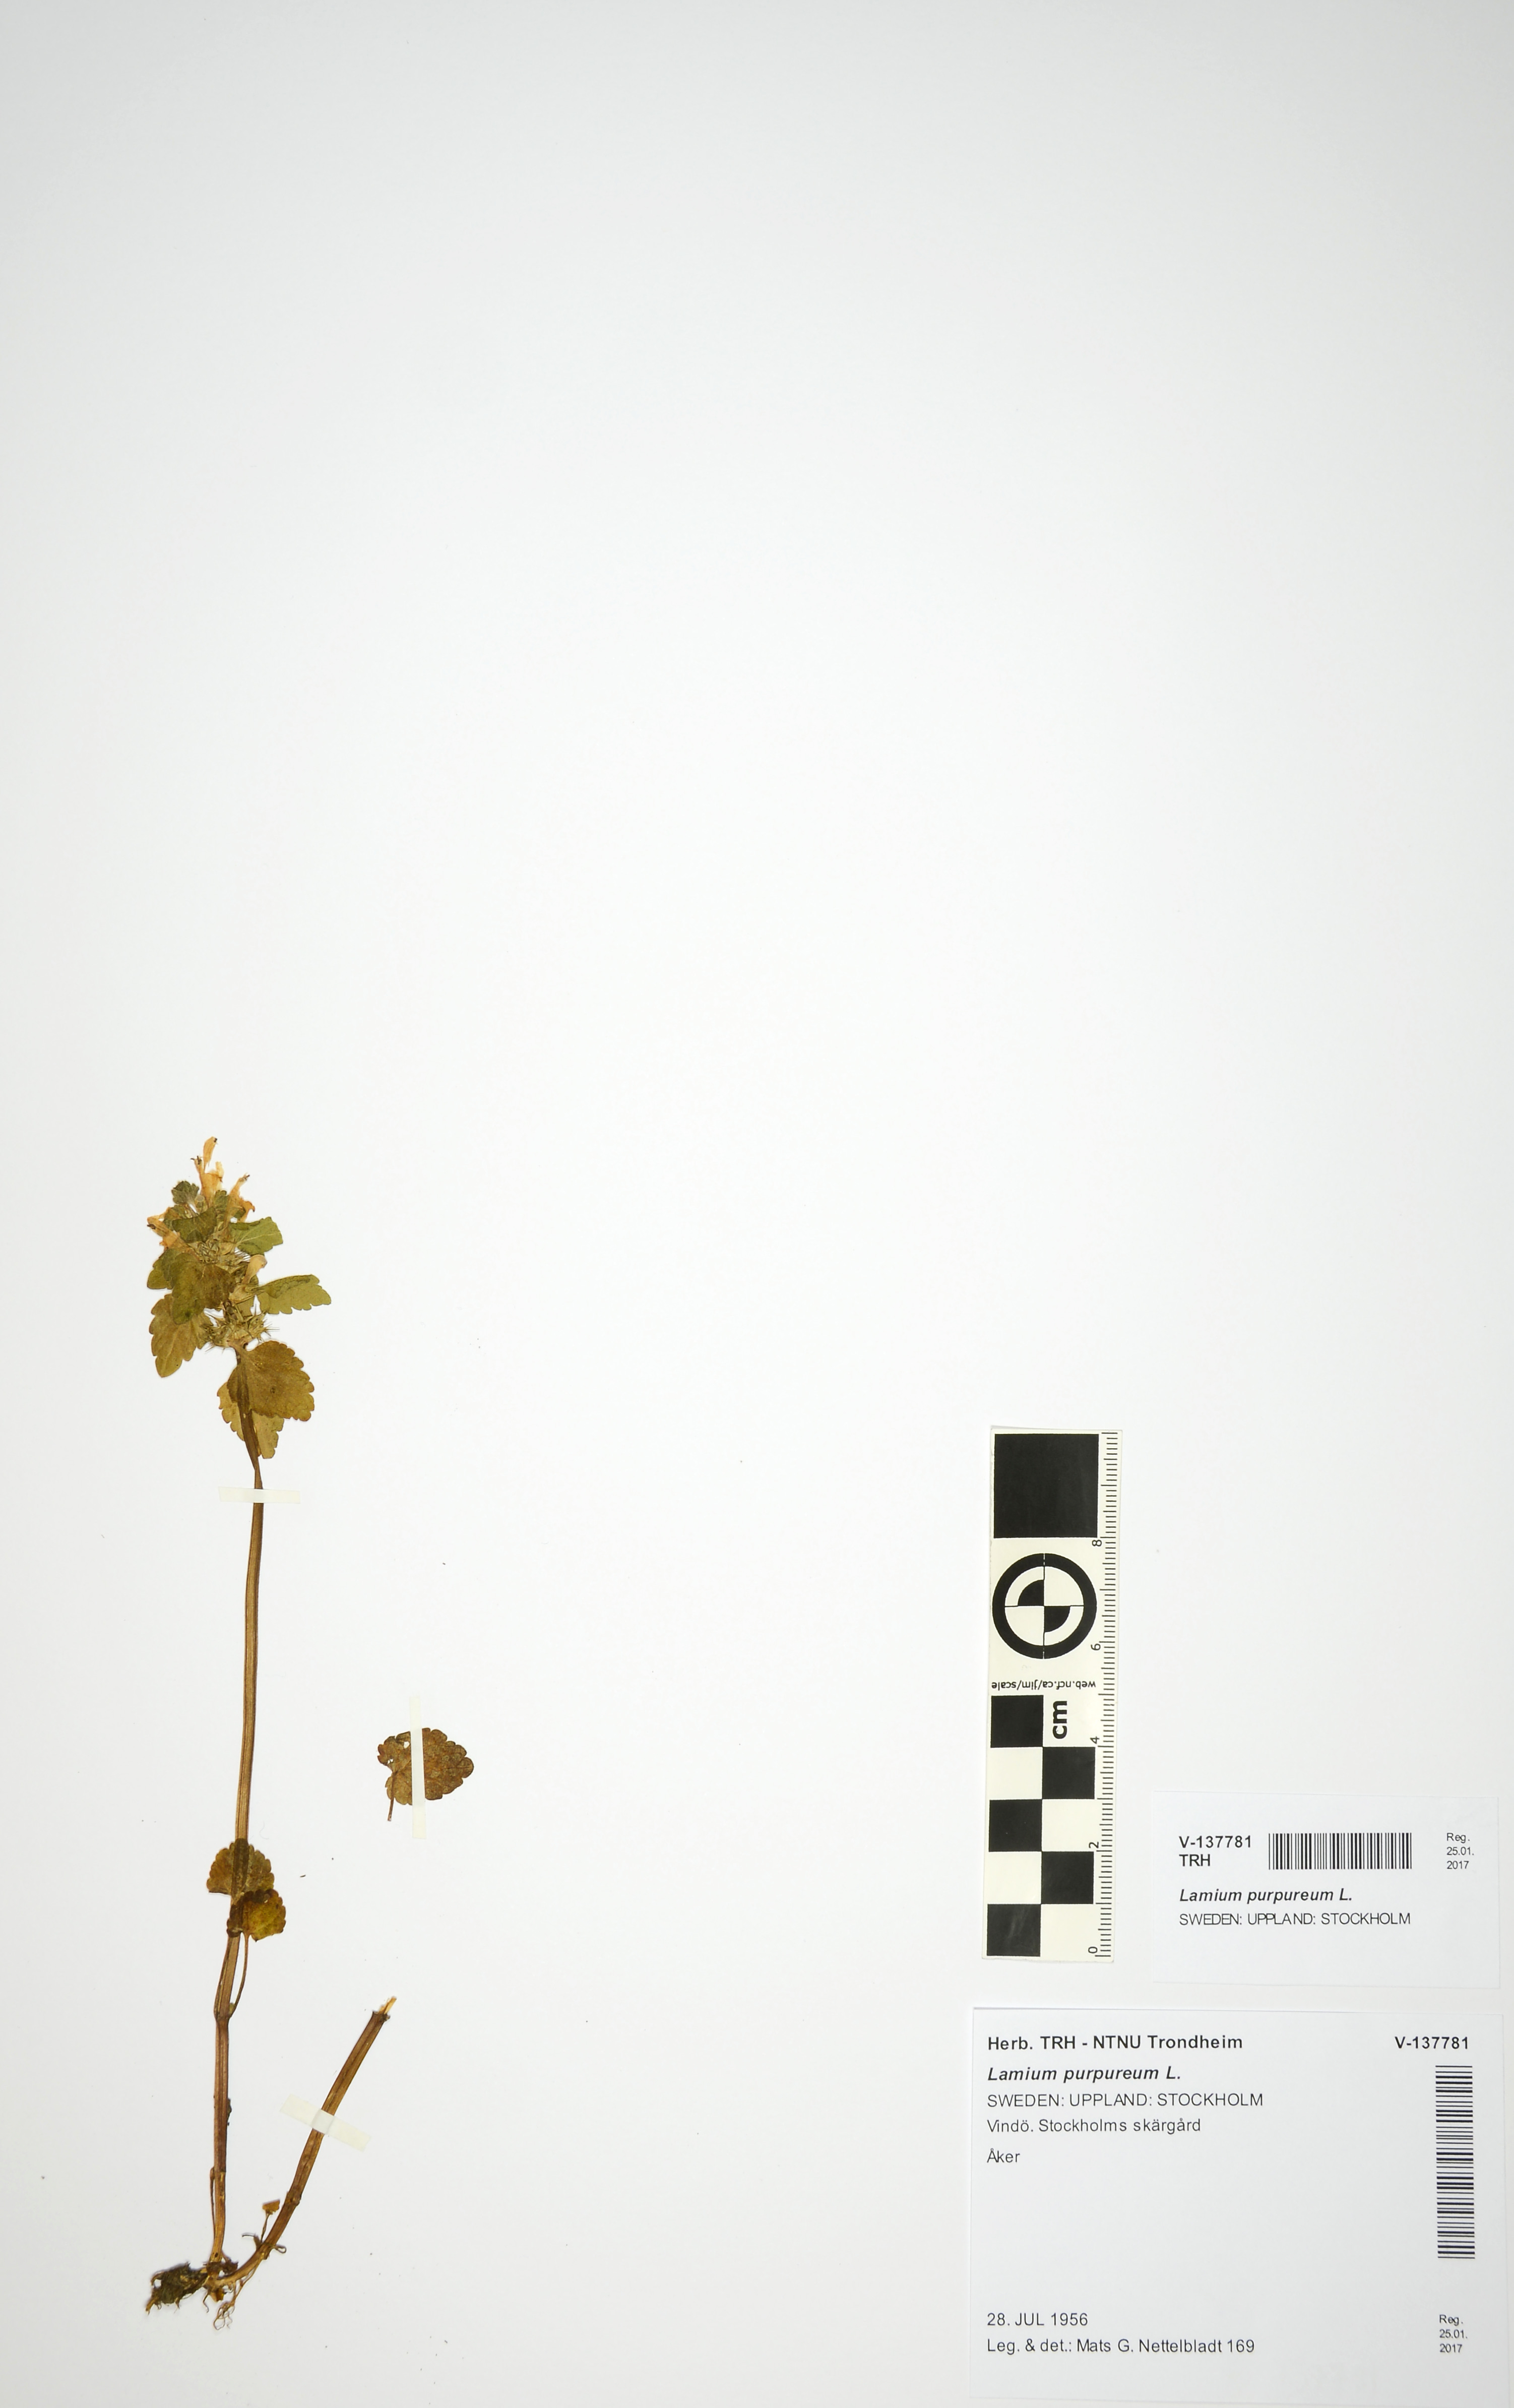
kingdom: Plantae
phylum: Tracheophyta
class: Magnoliopsida
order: Lamiales
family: Lamiaceae
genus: Lamium
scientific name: Lamium purpureum
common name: Red dead-nettle
